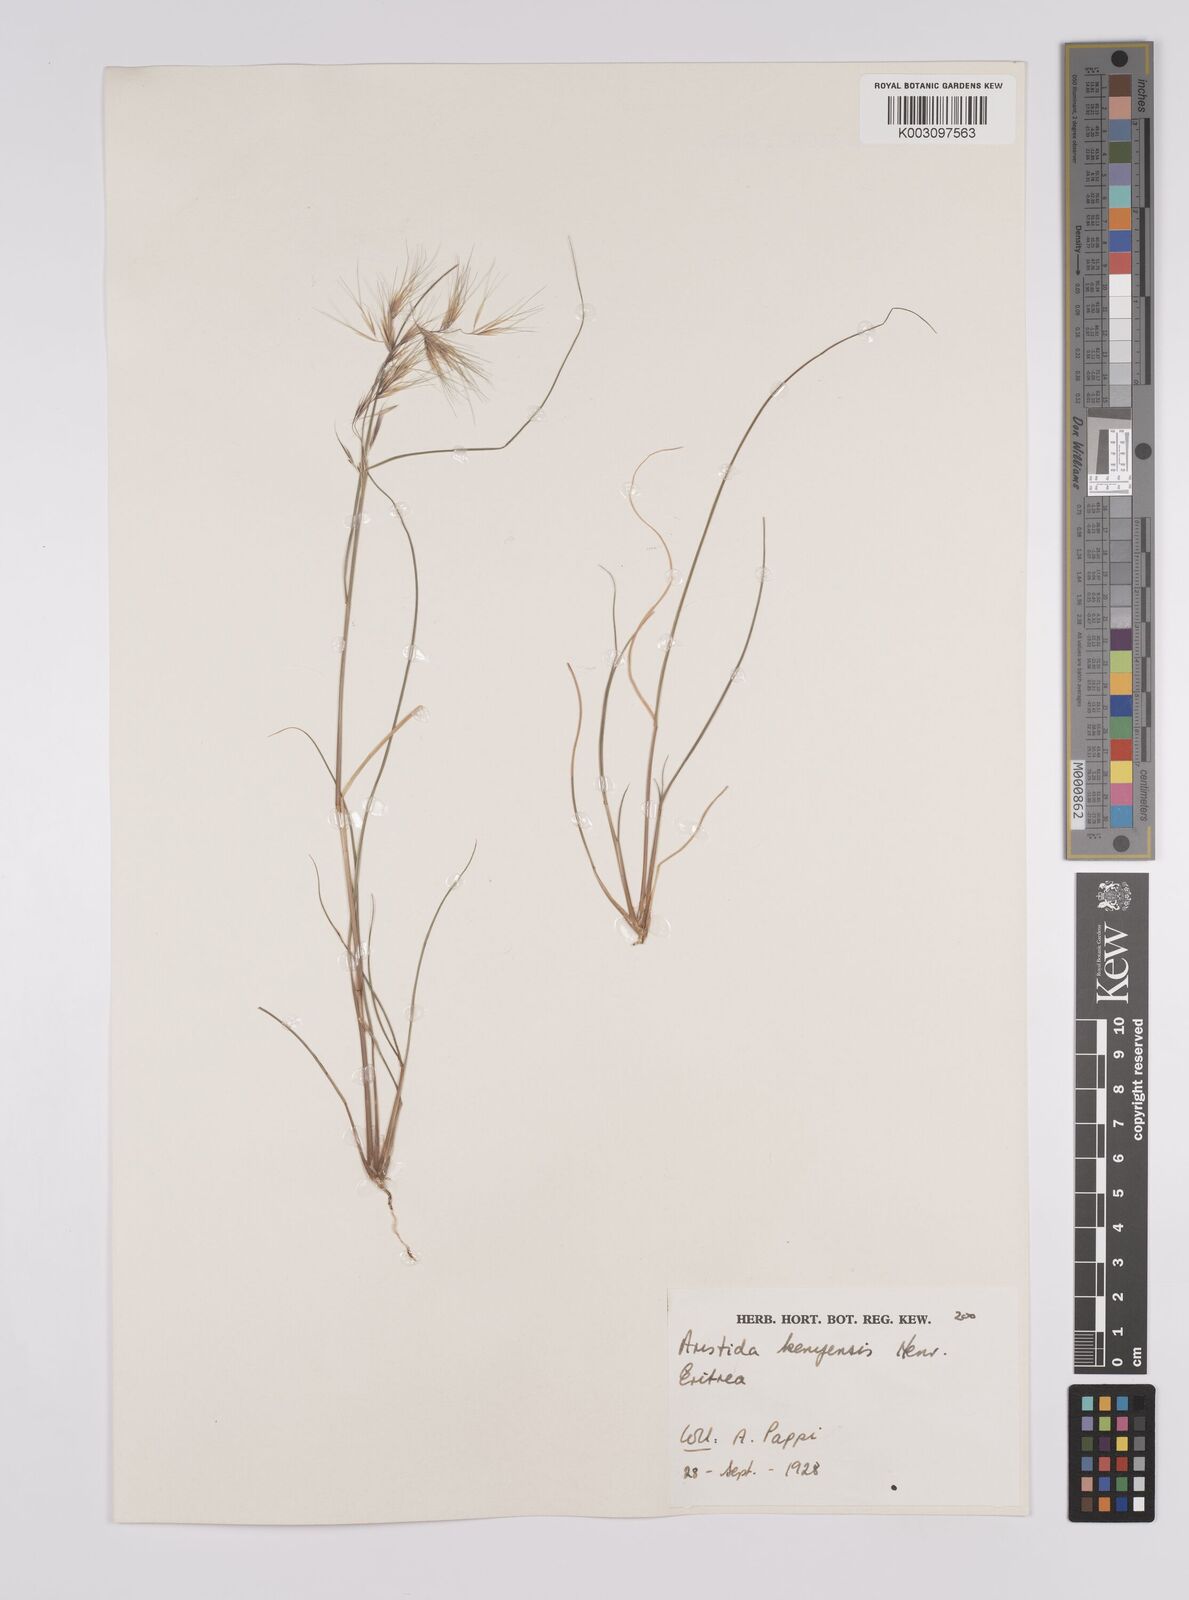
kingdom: Plantae
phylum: Tracheophyta
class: Liliopsida
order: Poales
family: Poaceae
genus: Aristida
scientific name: Aristida kenyensis
